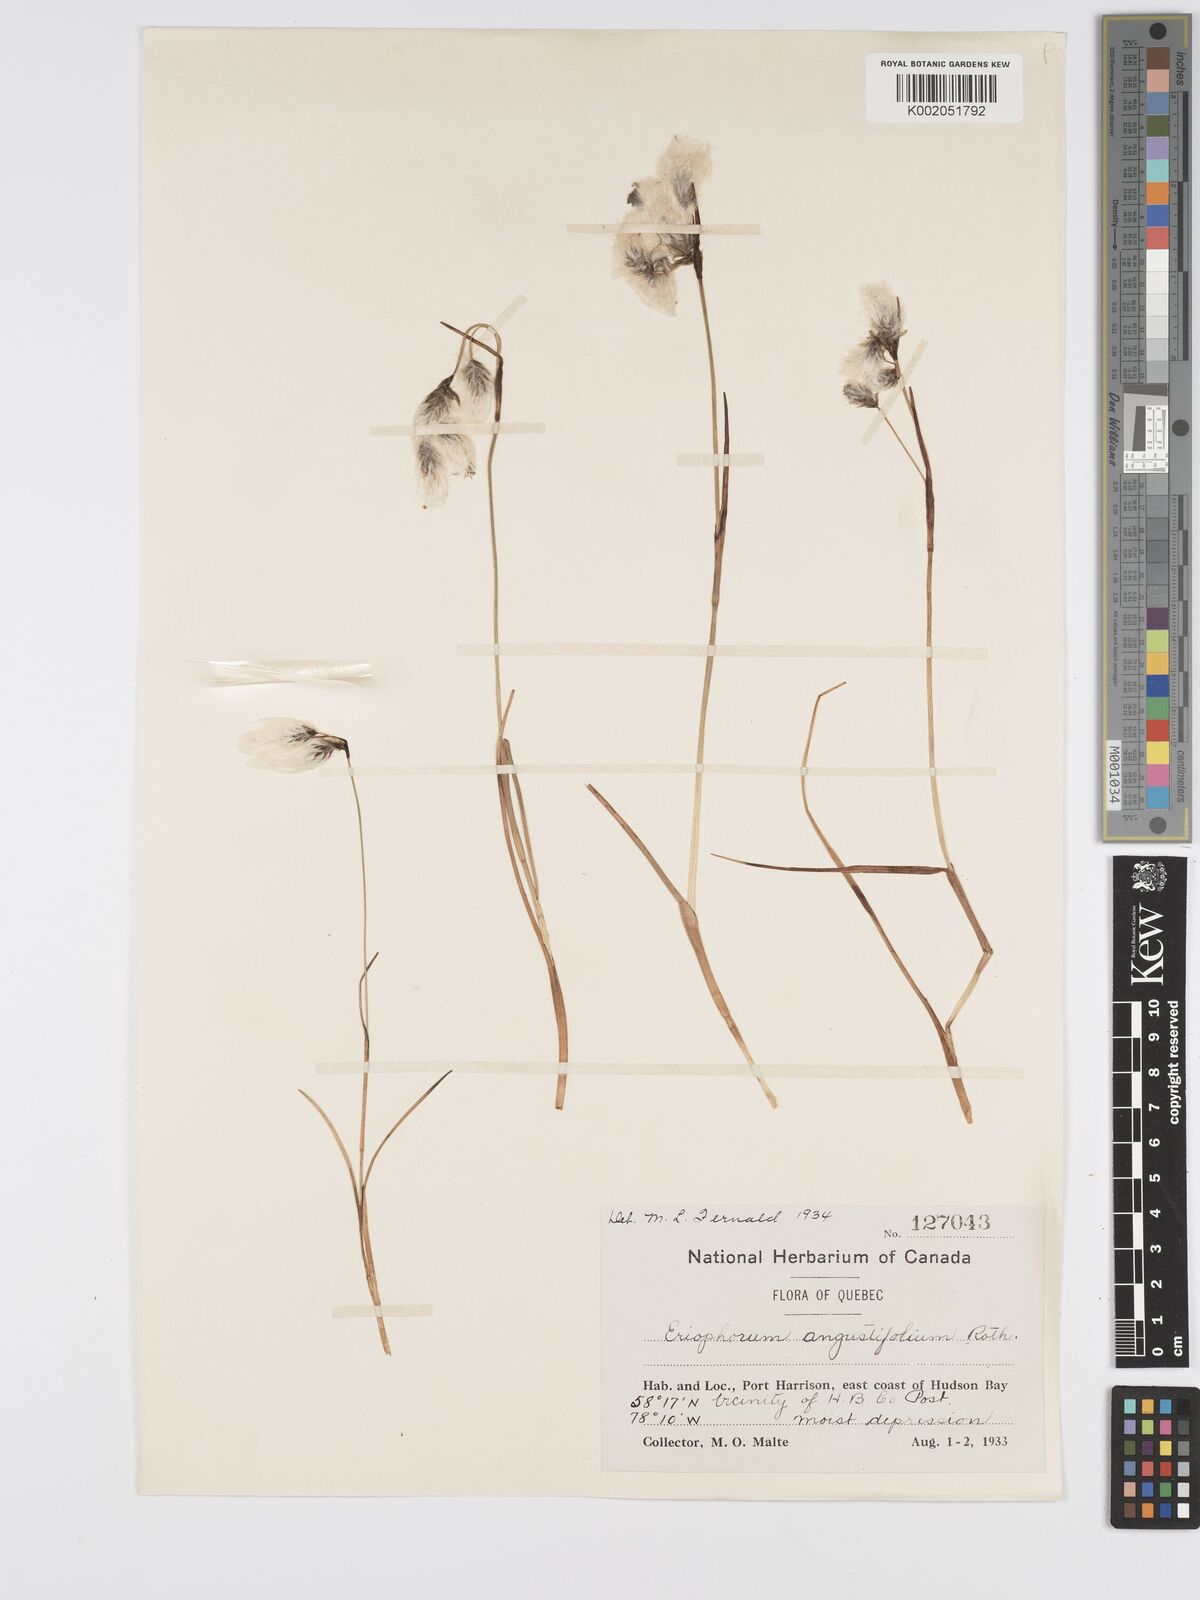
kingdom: Plantae
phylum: Tracheophyta
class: Liliopsida
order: Poales
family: Cyperaceae
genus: Eriophorum
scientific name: Eriophorum angustifolium
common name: Common cottongrass
